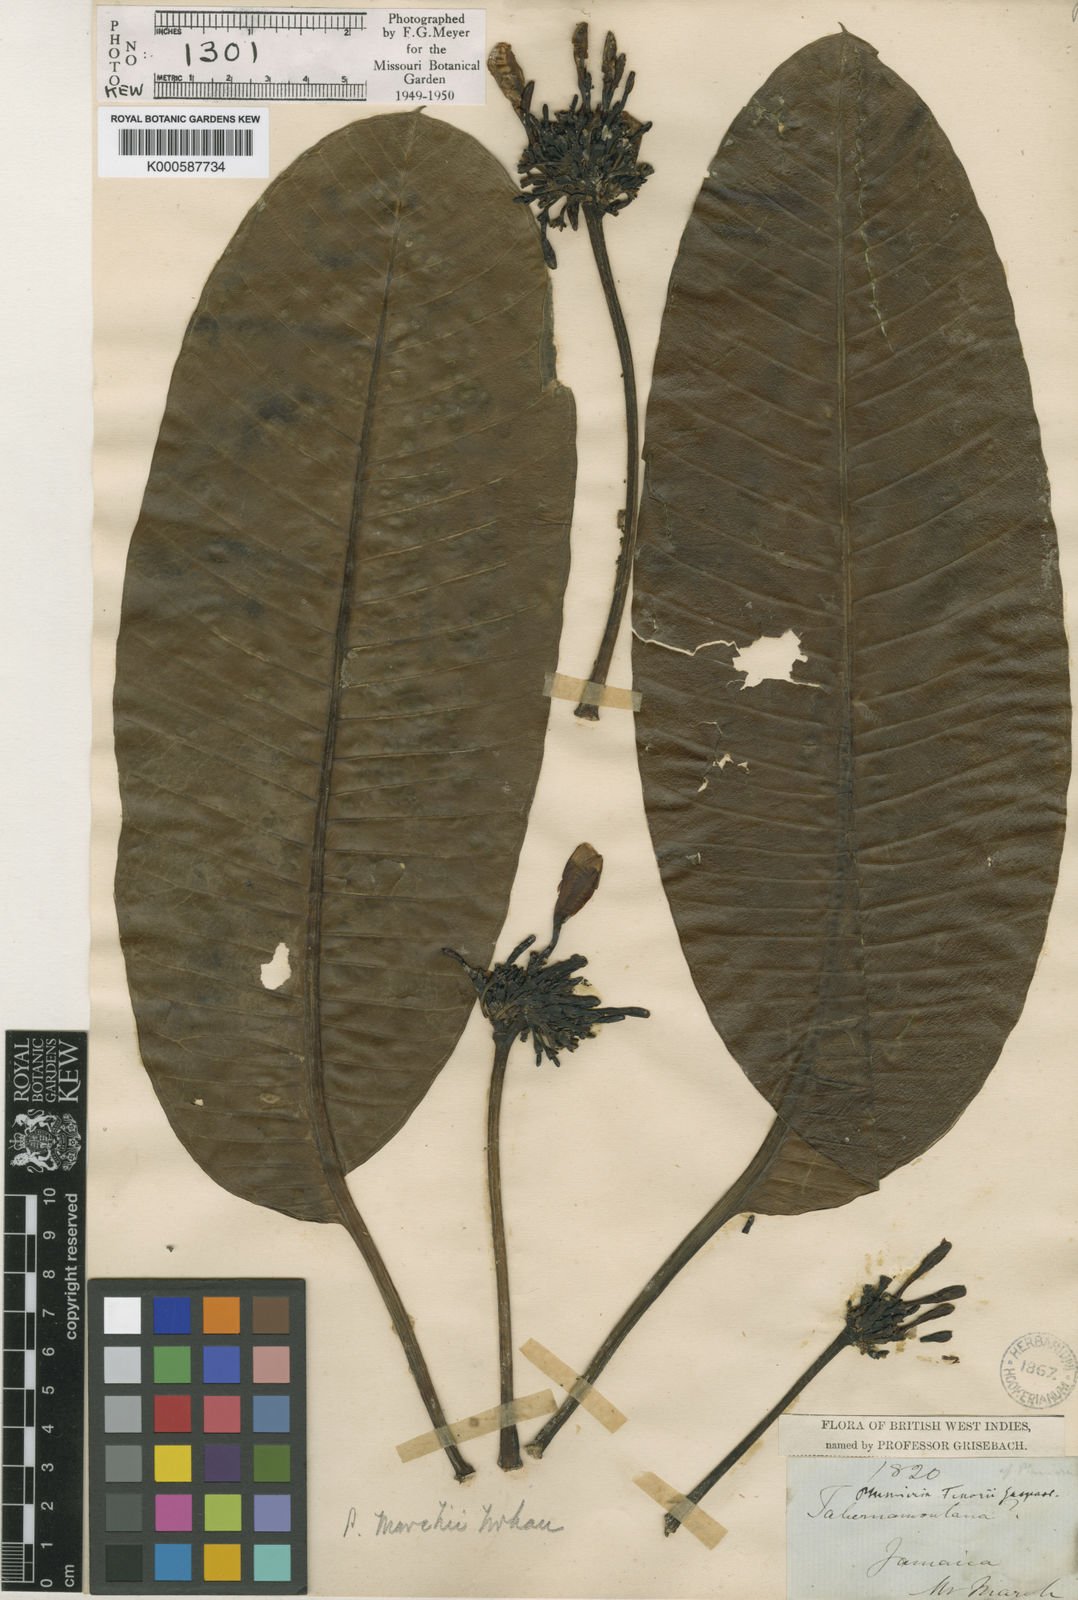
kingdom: Plantae
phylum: Tracheophyta
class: Magnoliopsida
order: Gentianales
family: Apocynaceae
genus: Plumeria
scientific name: Plumeria obtusa
